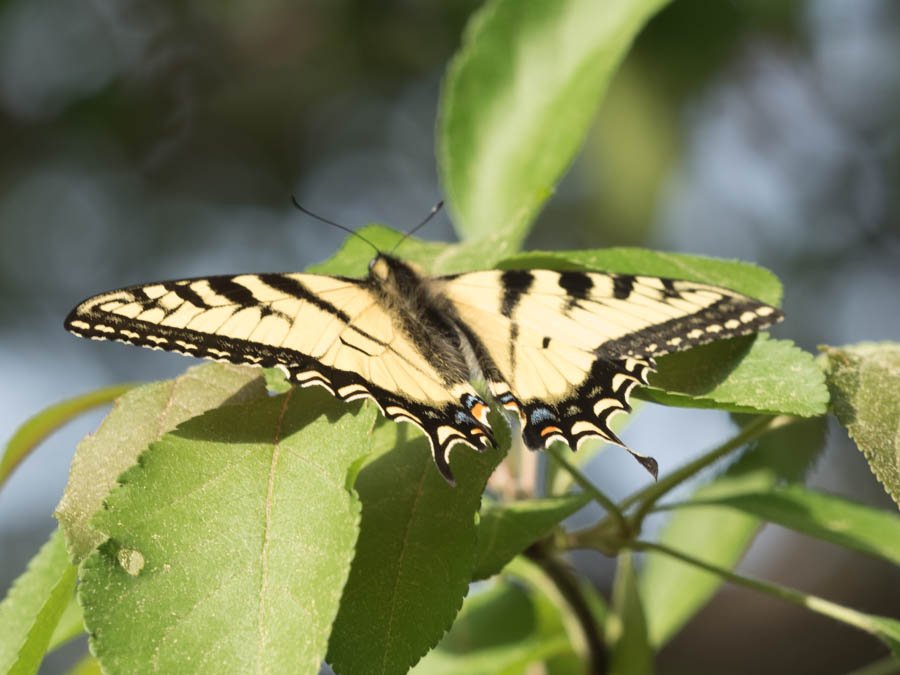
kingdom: Animalia
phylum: Arthropoda
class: Insecta
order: Lepidoptera
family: Papilionidae
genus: Pterourus
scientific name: Pterourus canadensis
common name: Canadian Tiger Swallowtail
